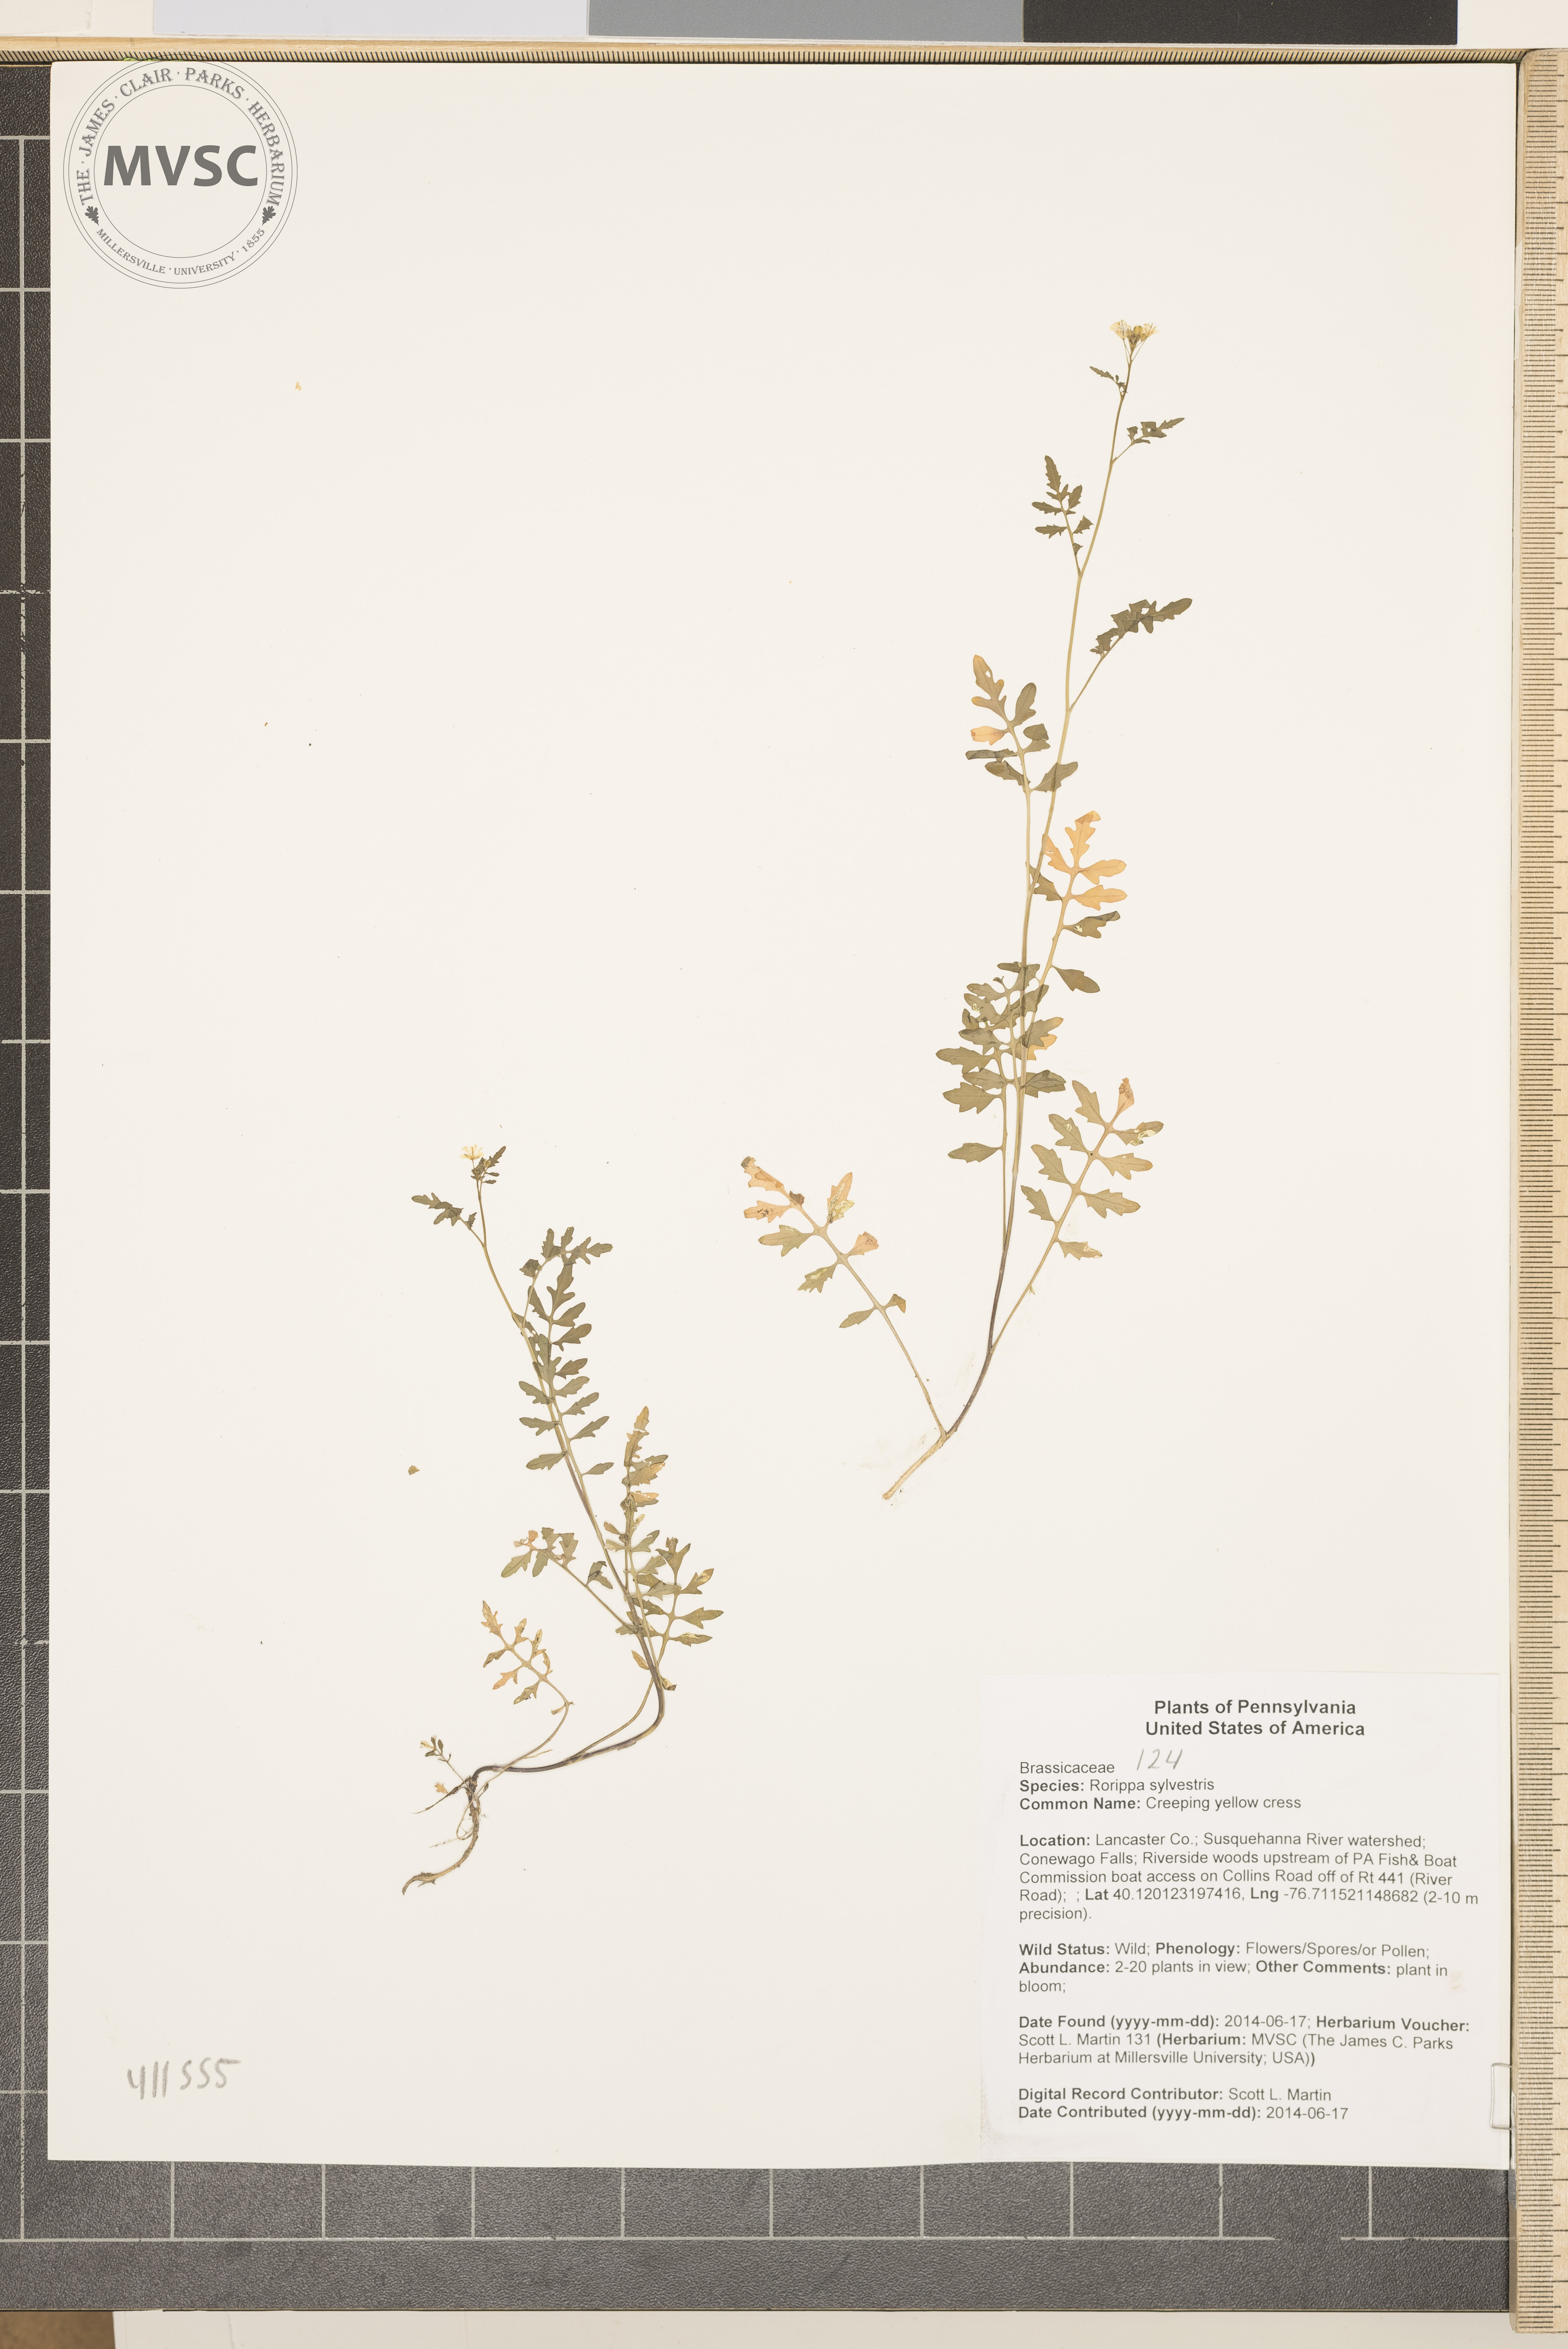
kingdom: Plantae
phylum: Tracheophyta
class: Magnoliopsida
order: Brassicales
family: Brassicaceae
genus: Rorippa
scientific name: Rorippa sylvestris
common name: Creeping yellow cress
